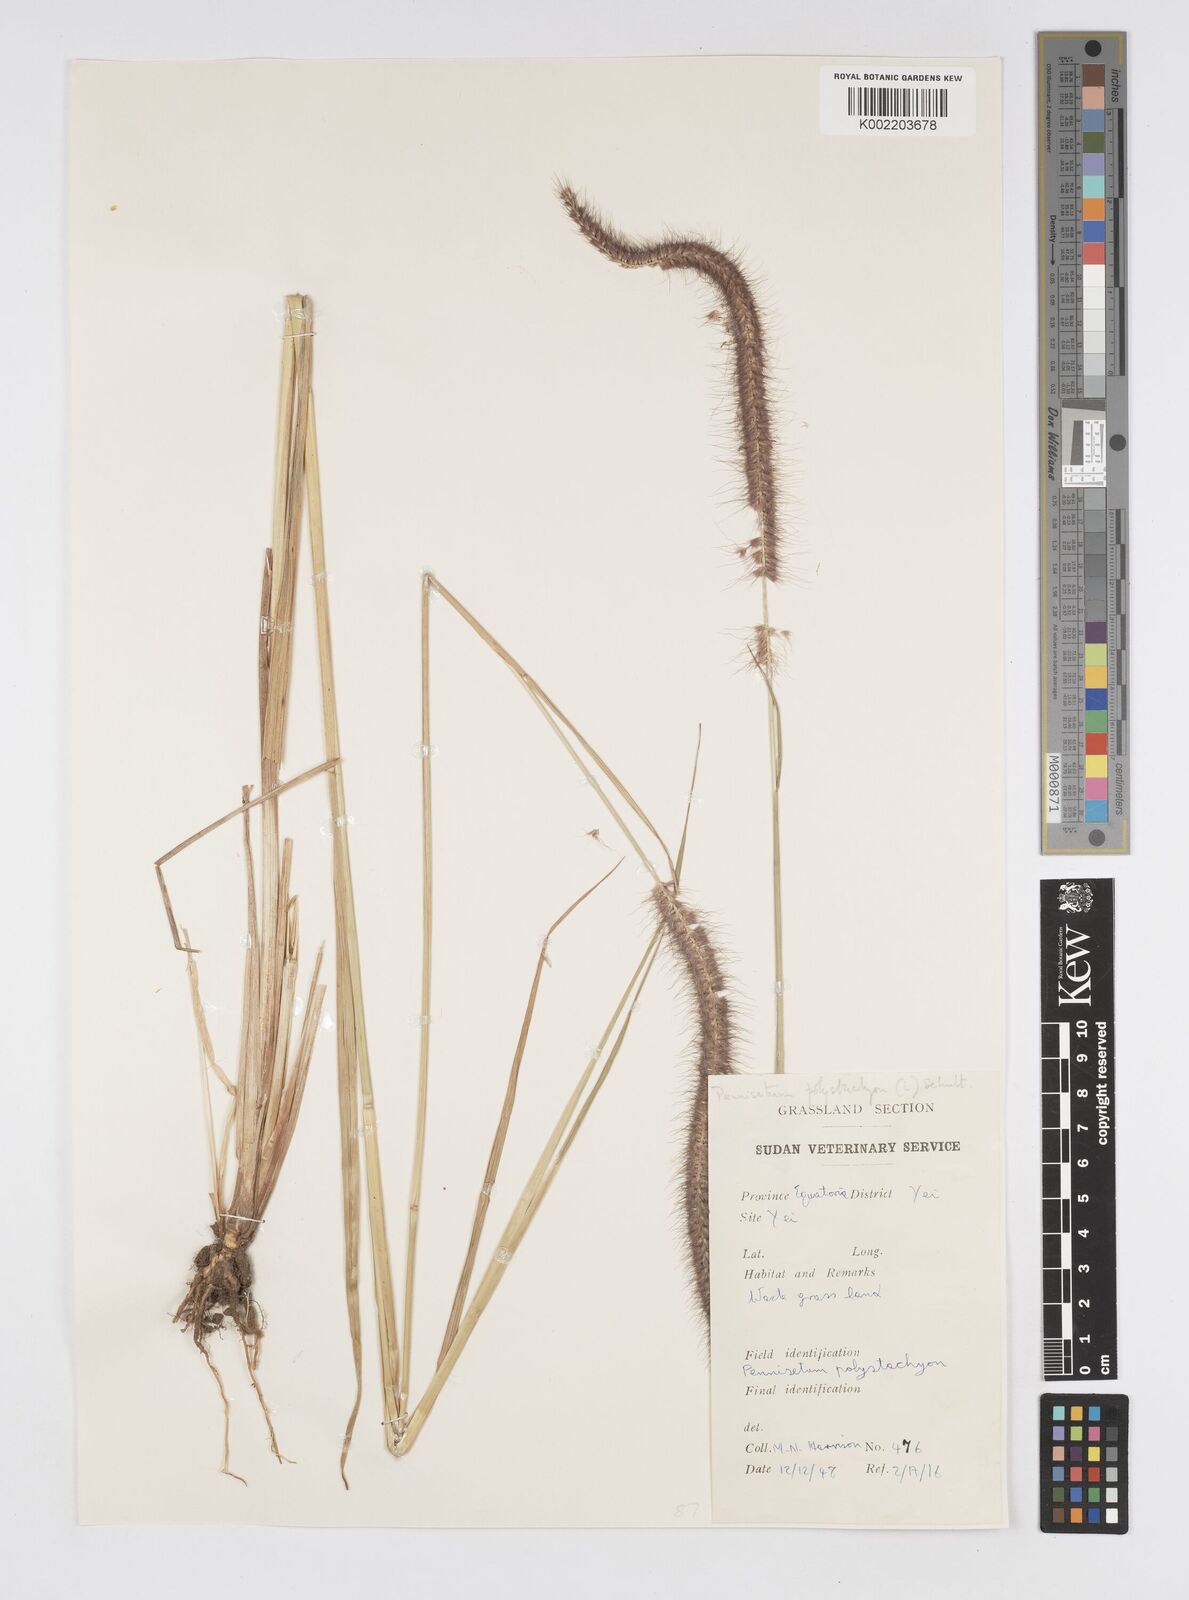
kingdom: Plantae
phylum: Tracheophyta
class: Liliopsida
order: Poales
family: Poaceae
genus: Setaria
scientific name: Setaria parviflora
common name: Knotroot bristle-grass
